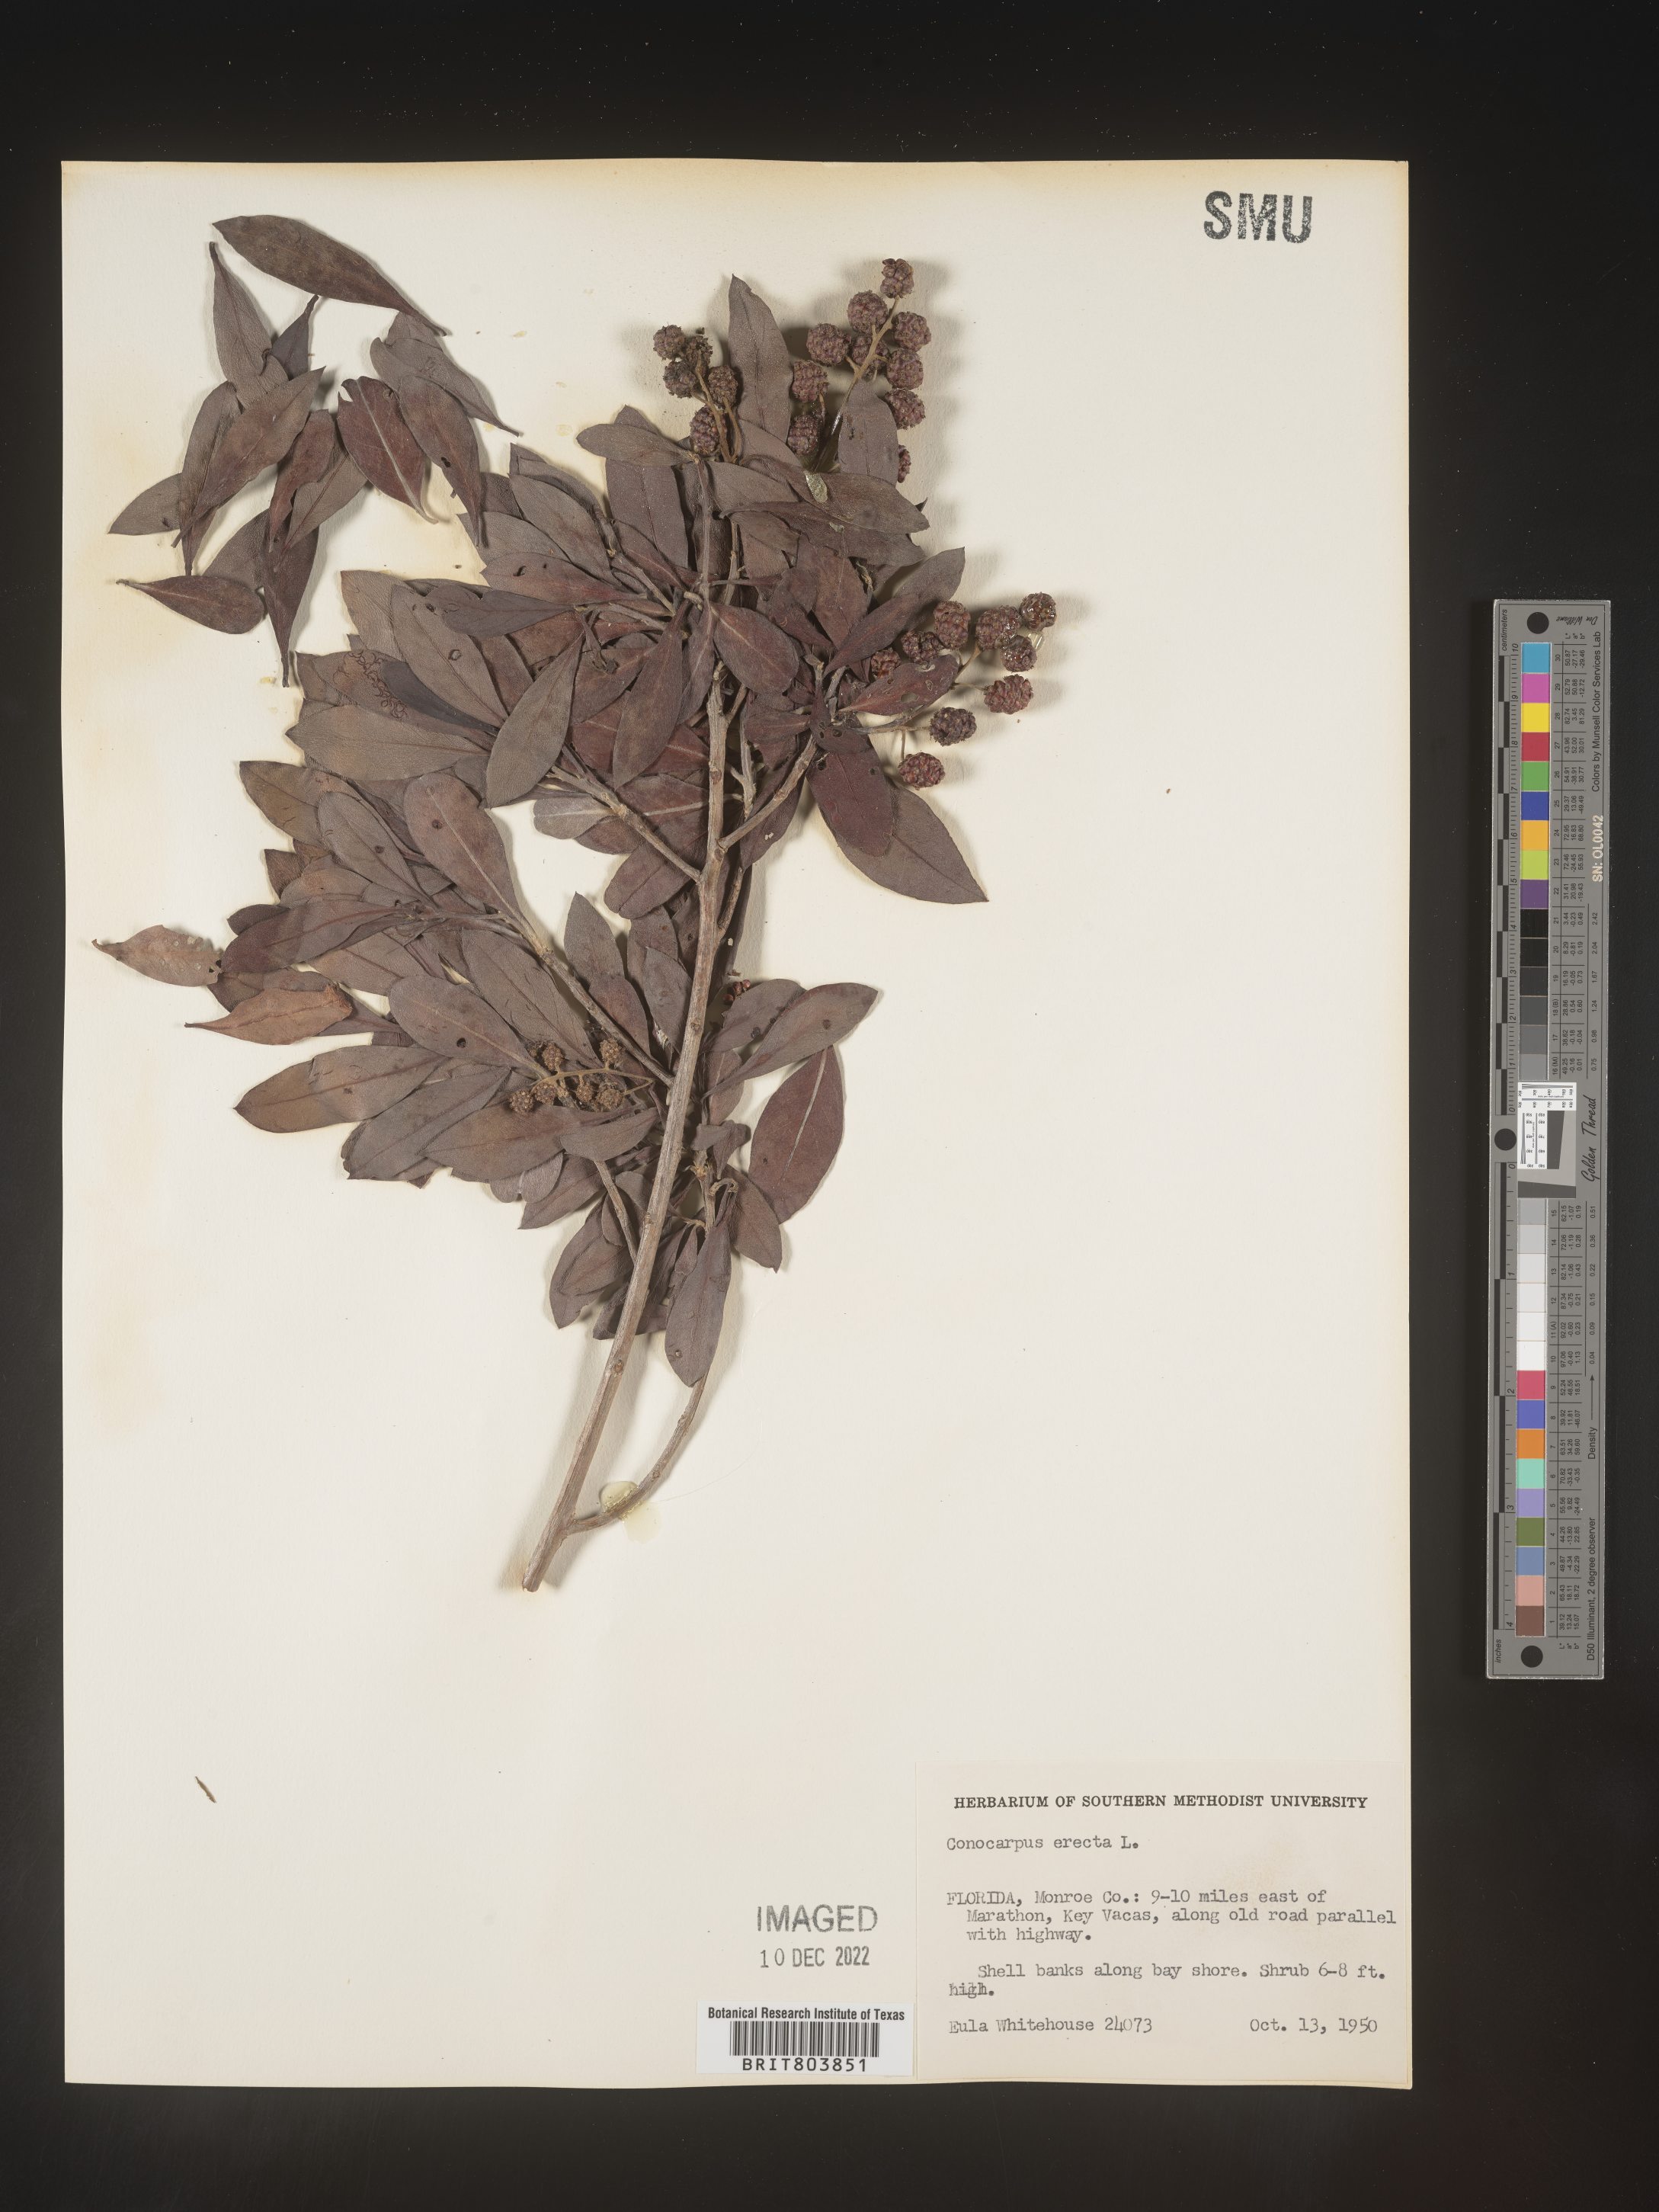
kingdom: Plantae
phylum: Tracheophyta
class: Magnoliopsida
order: Myrtales
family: Combretaceae
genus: Conocarpus
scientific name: Conocarpus erectus
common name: Button mangrove
